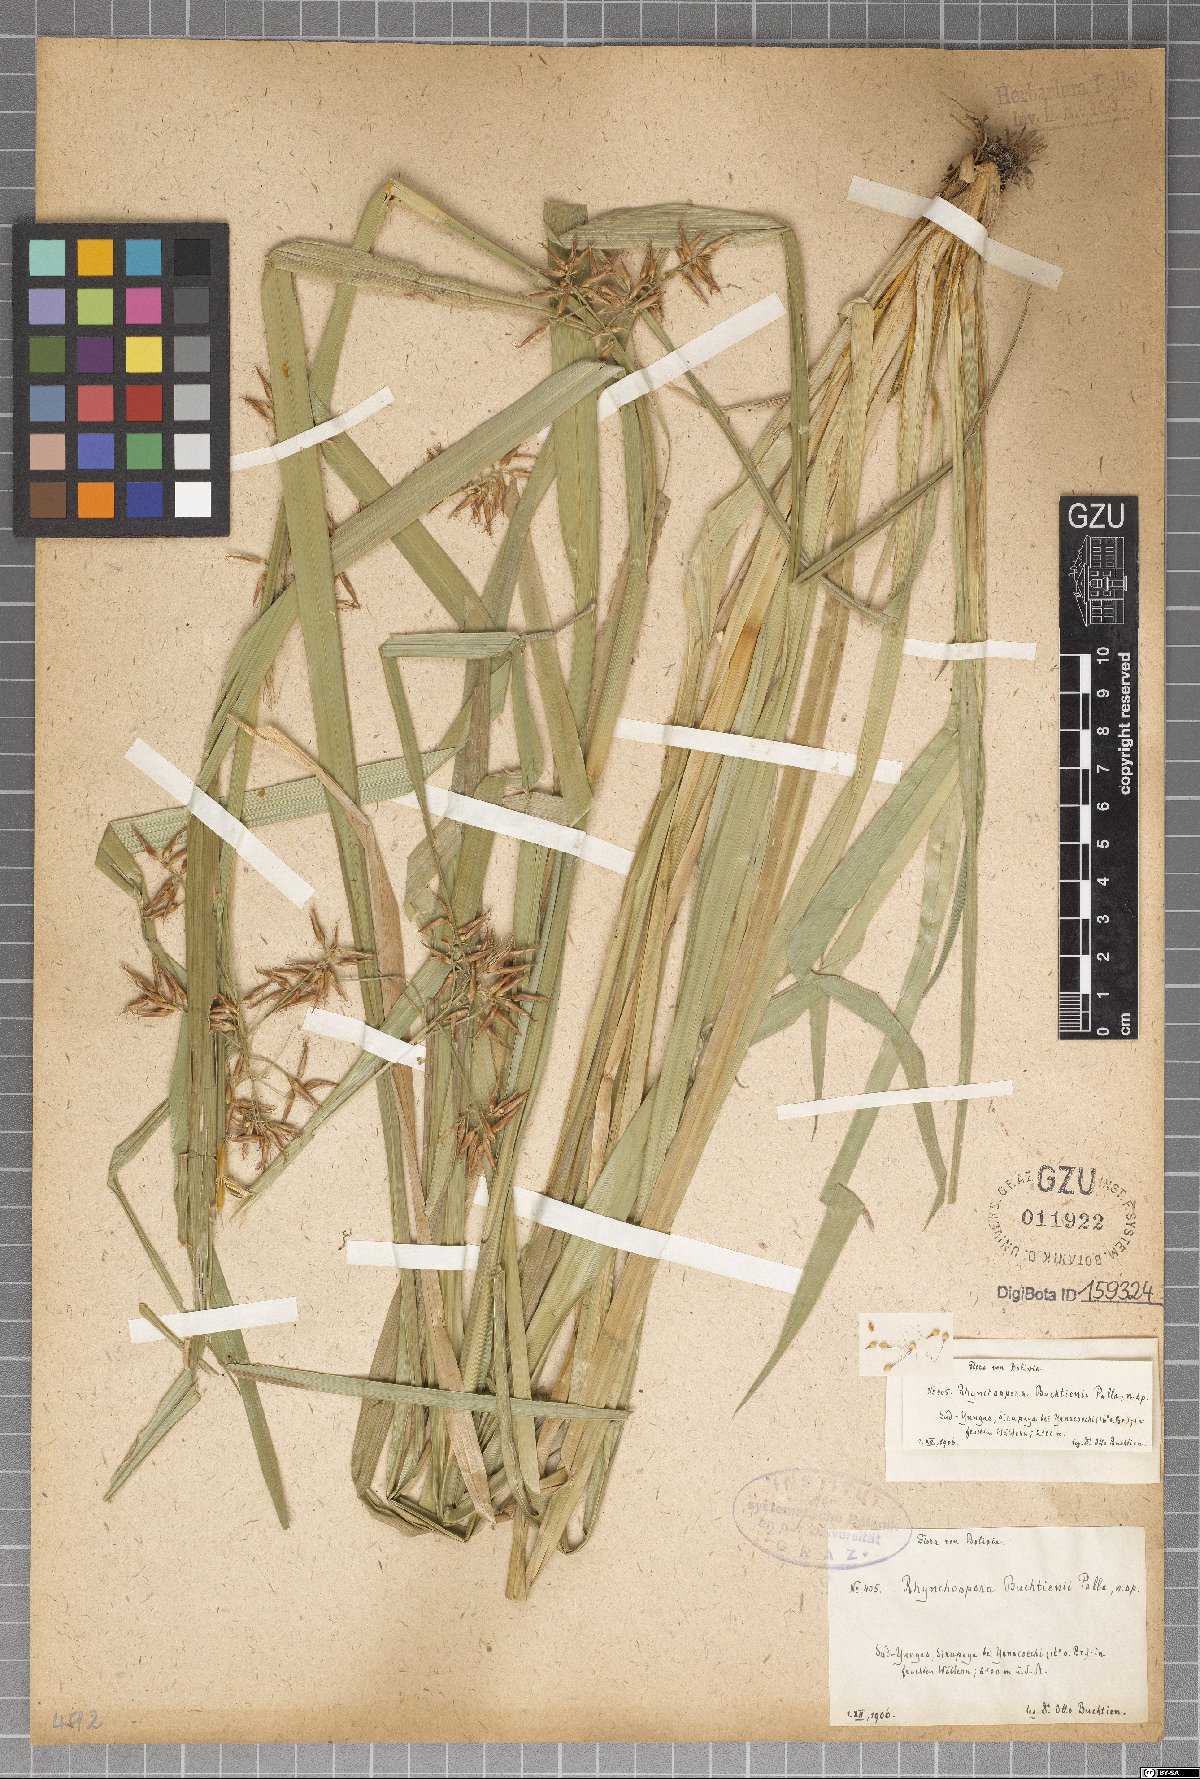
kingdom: Plantae
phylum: Tracheophyta
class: Liliopsida
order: Poales
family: Cyperaceae
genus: Rhynchospora
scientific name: Rhynchospora buchtienii
